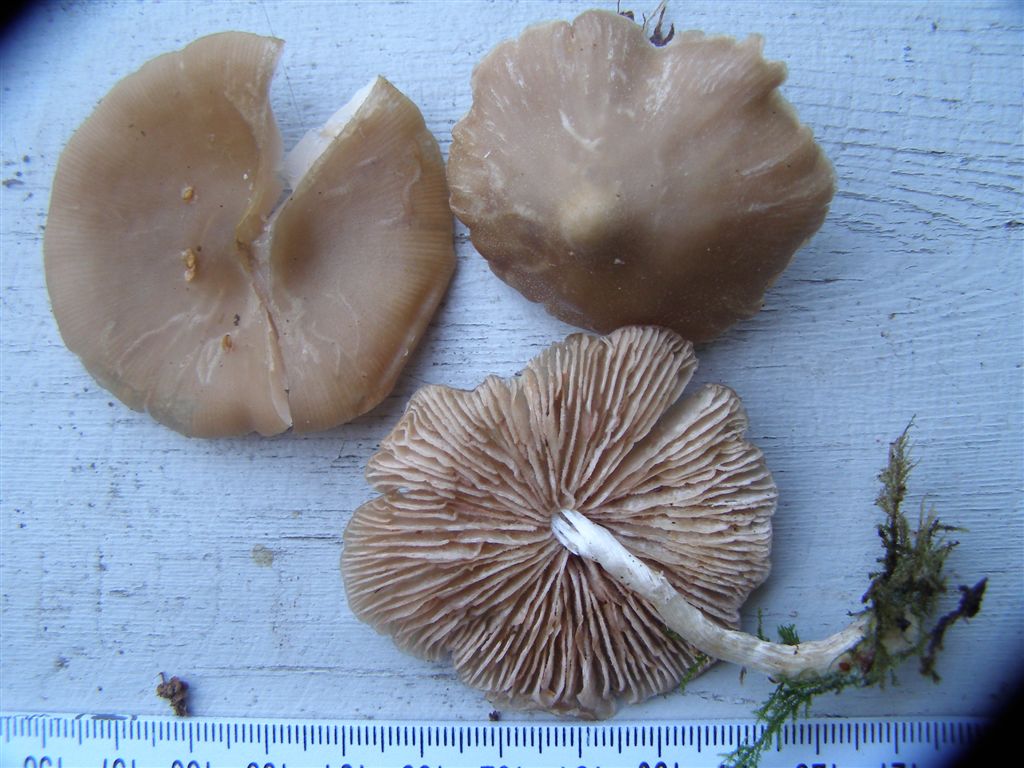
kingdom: Fungi
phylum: Basidiomycota
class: Agaricomycetes
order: Agaricales
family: Entolomataceae
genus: Entoloma
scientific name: Entoloma sericatum
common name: rank rødblad
